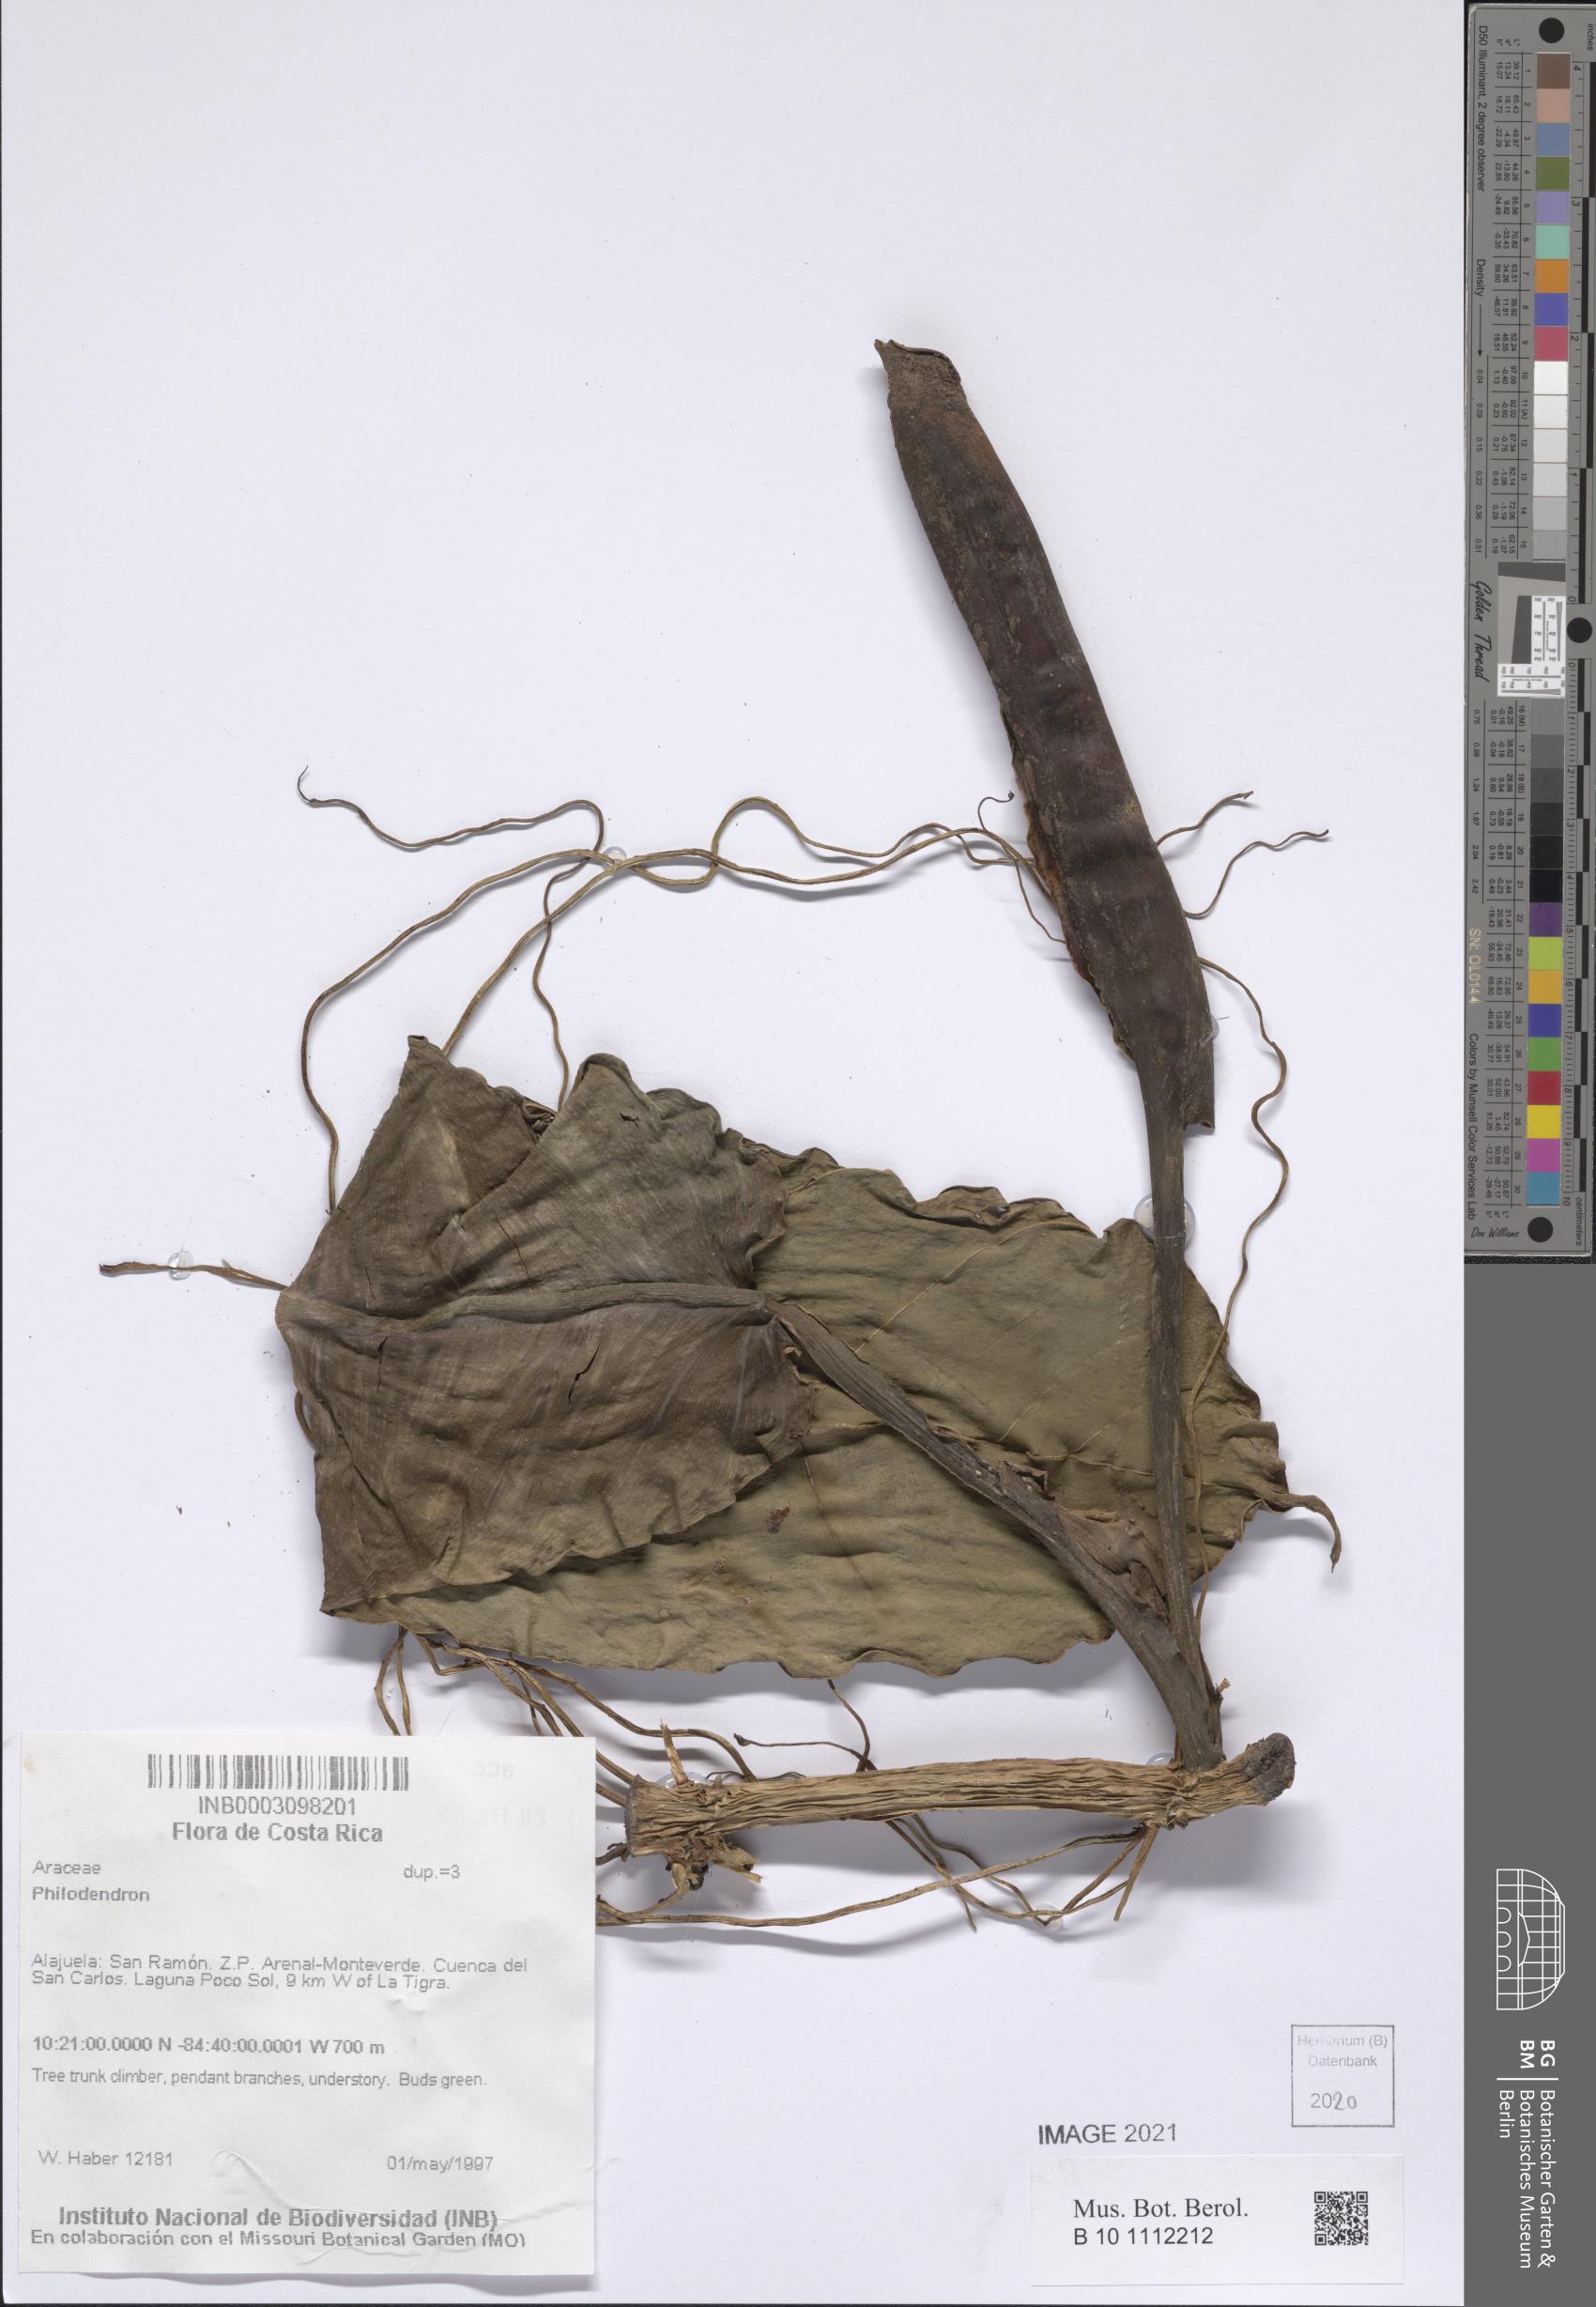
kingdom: Plantae
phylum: Tracheophyta
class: Liliopsida
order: Alismatales
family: Araceae
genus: Philodendron
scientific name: Philodendron
